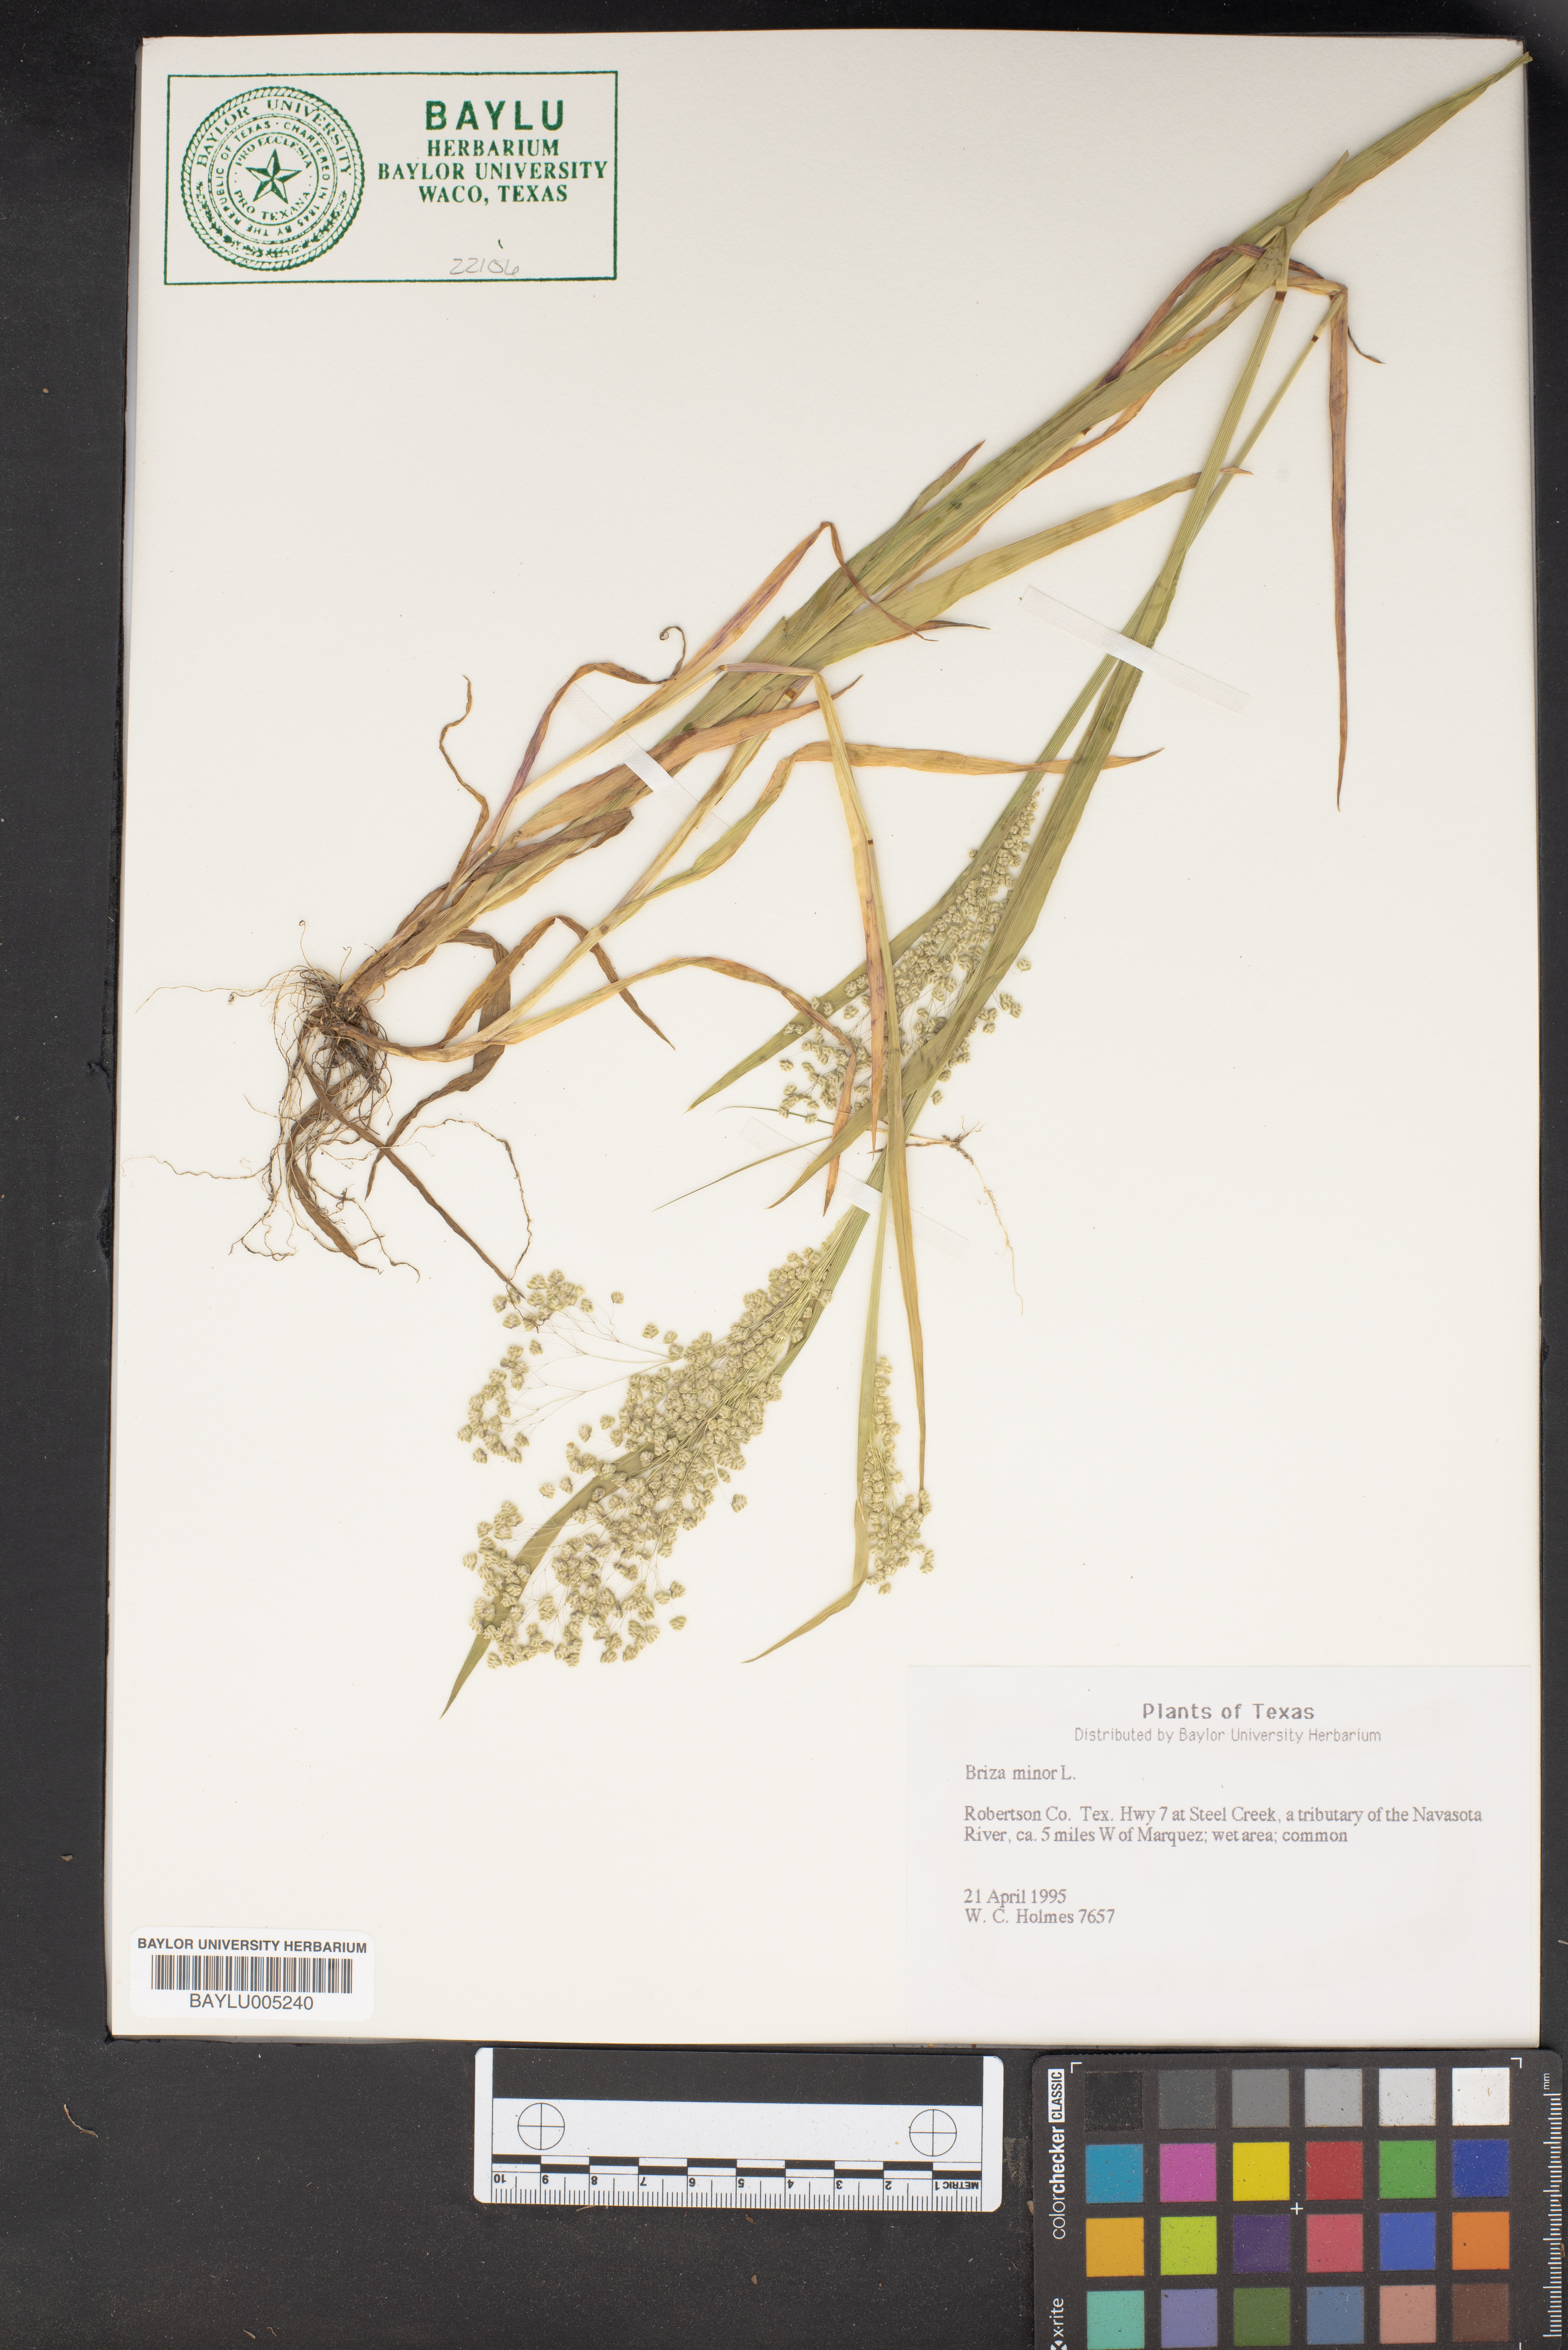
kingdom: Plantae
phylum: Tracheophyta
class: Liliopsida
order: Poales
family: Poaceae
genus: Briza
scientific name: Briza minor
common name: Lesser quaking-grass
